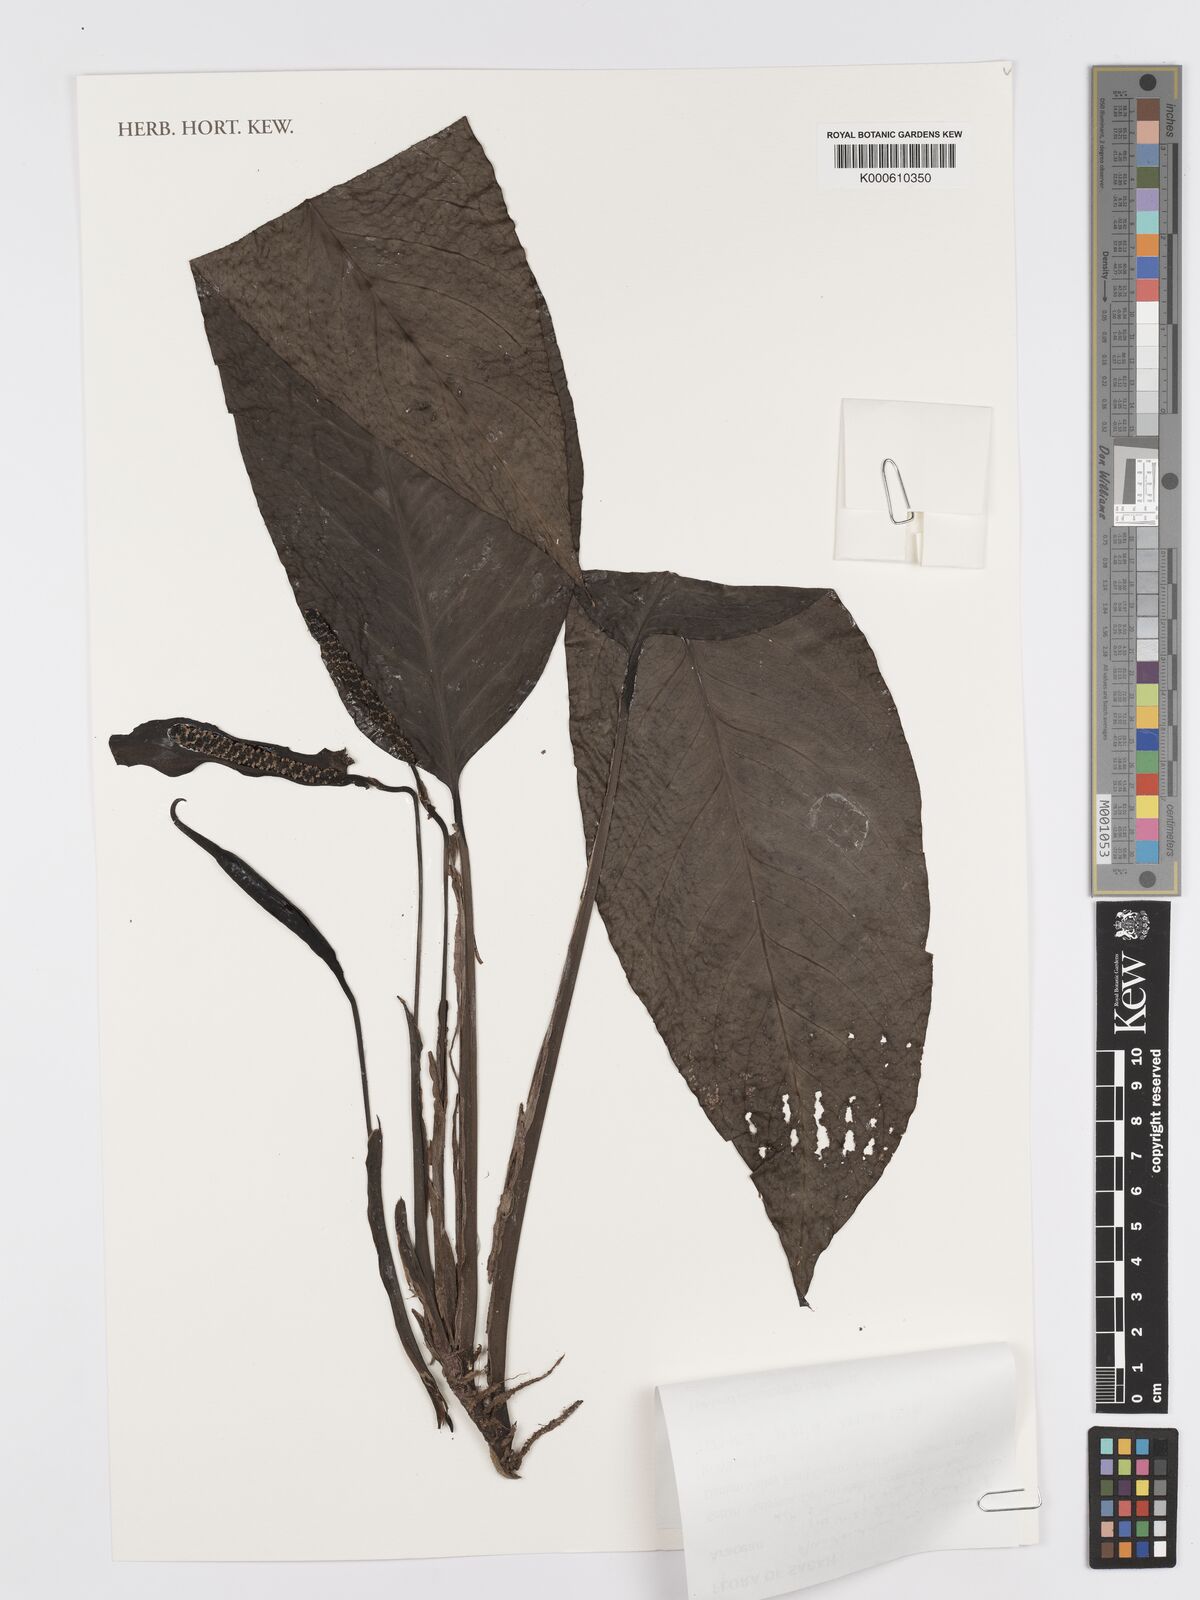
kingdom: Plantae
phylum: Tracheophyta
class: Liliopsida
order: Alismatales
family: Araceae
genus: Anadendrum
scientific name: Anadendrum
